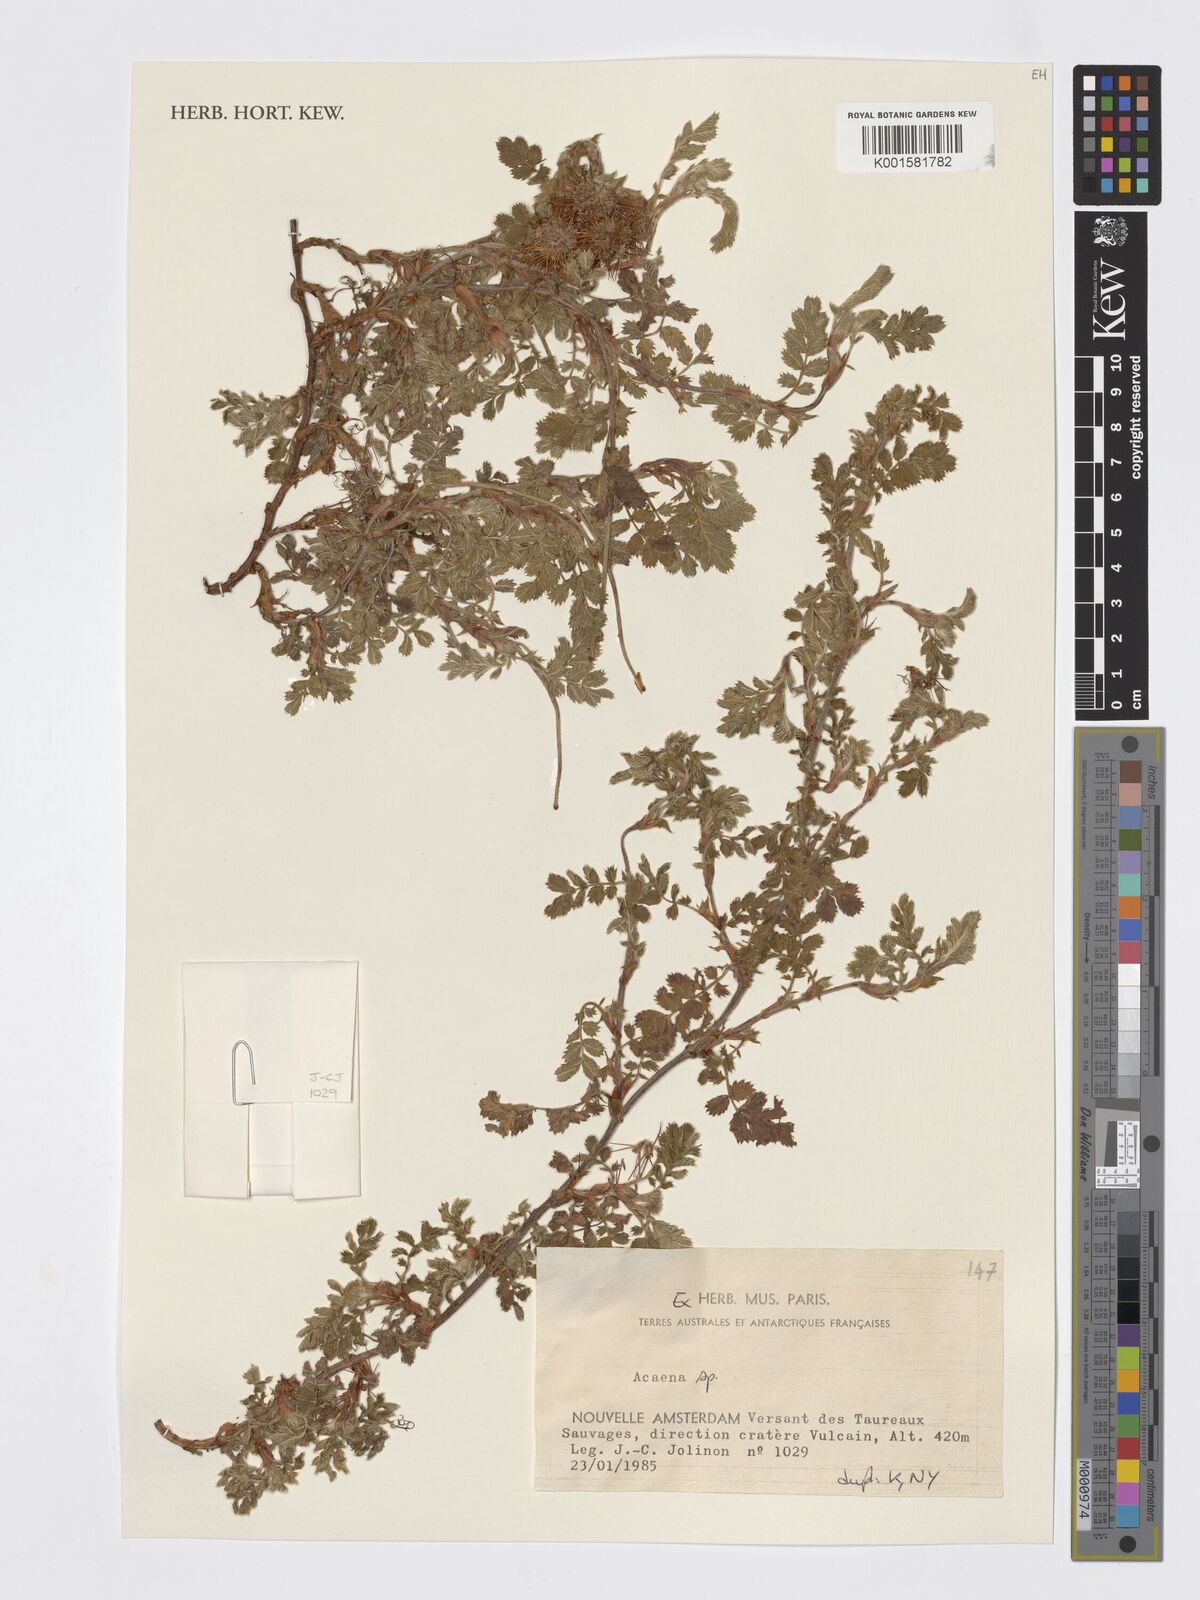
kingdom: Plantae
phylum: Tracheophyta
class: Magnoliopsida
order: Rosales
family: Rosaceae
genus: Acaena
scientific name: Acaena
